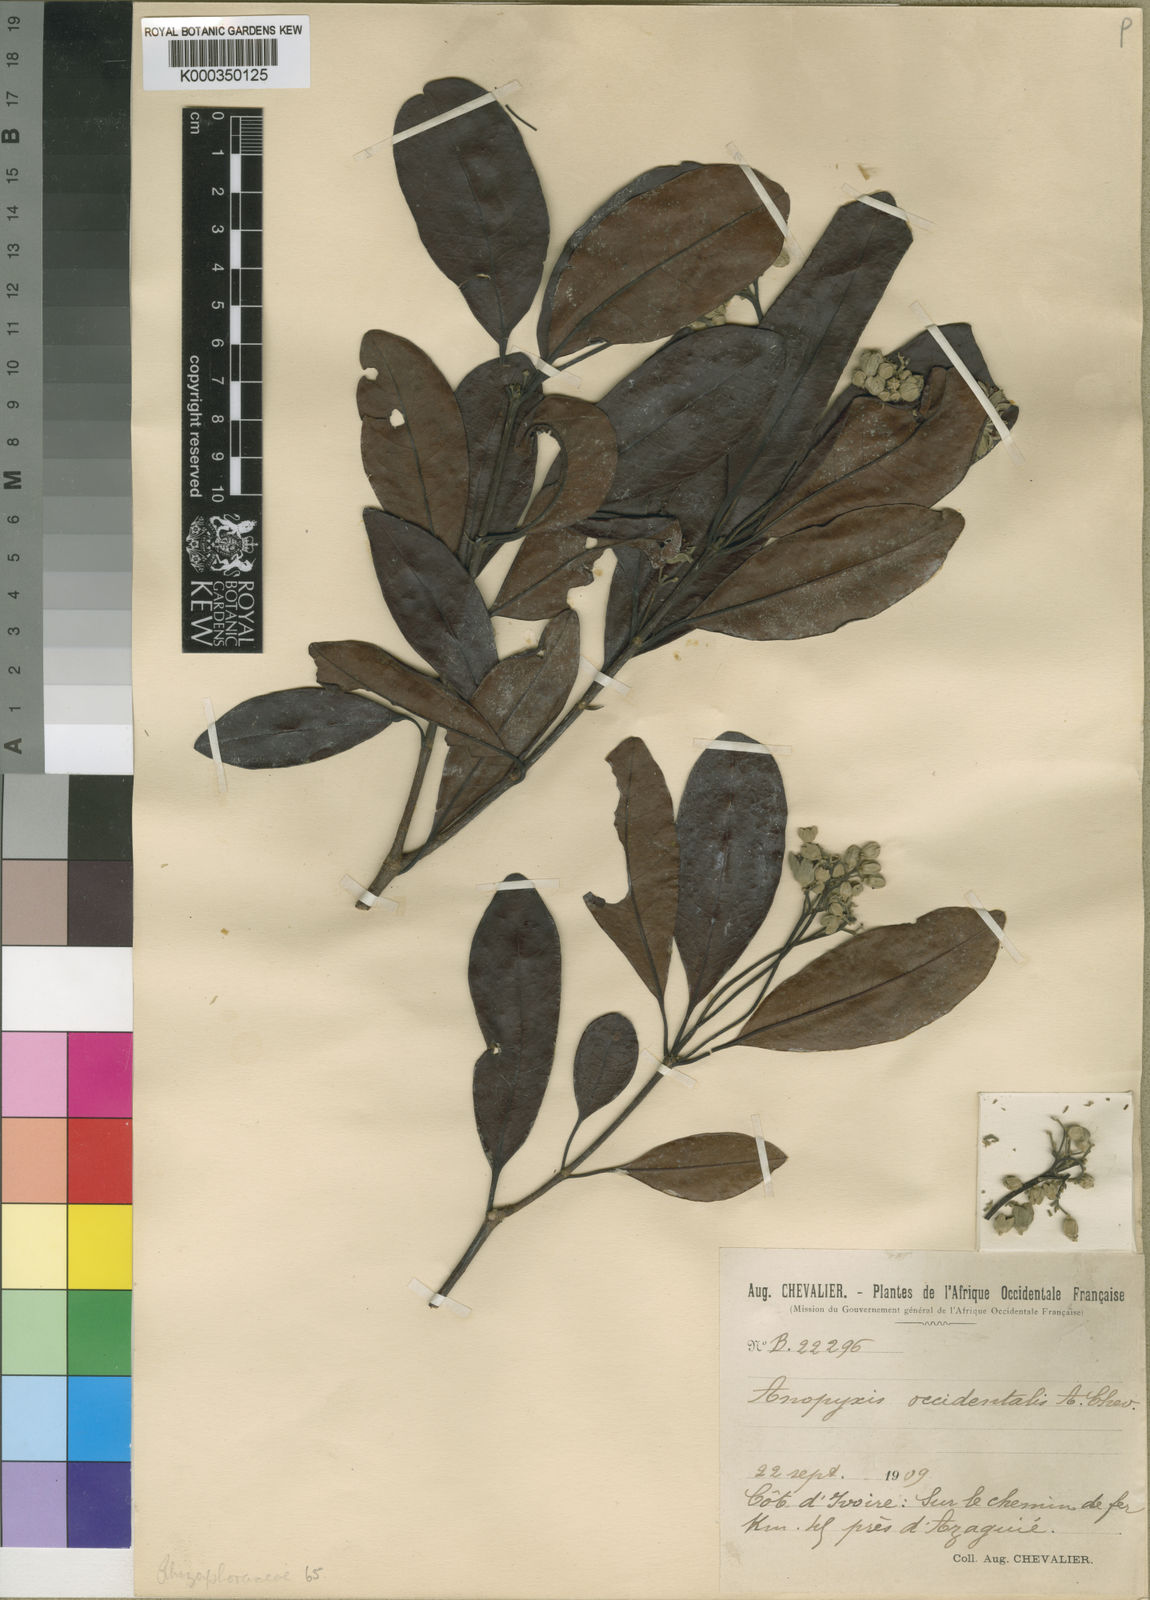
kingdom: Plantae
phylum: Tracheophyta
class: Magnoliopsida
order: Malpighiales
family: Rhizophoraceae
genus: Anopyxis
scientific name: Anopyxis klaineana
